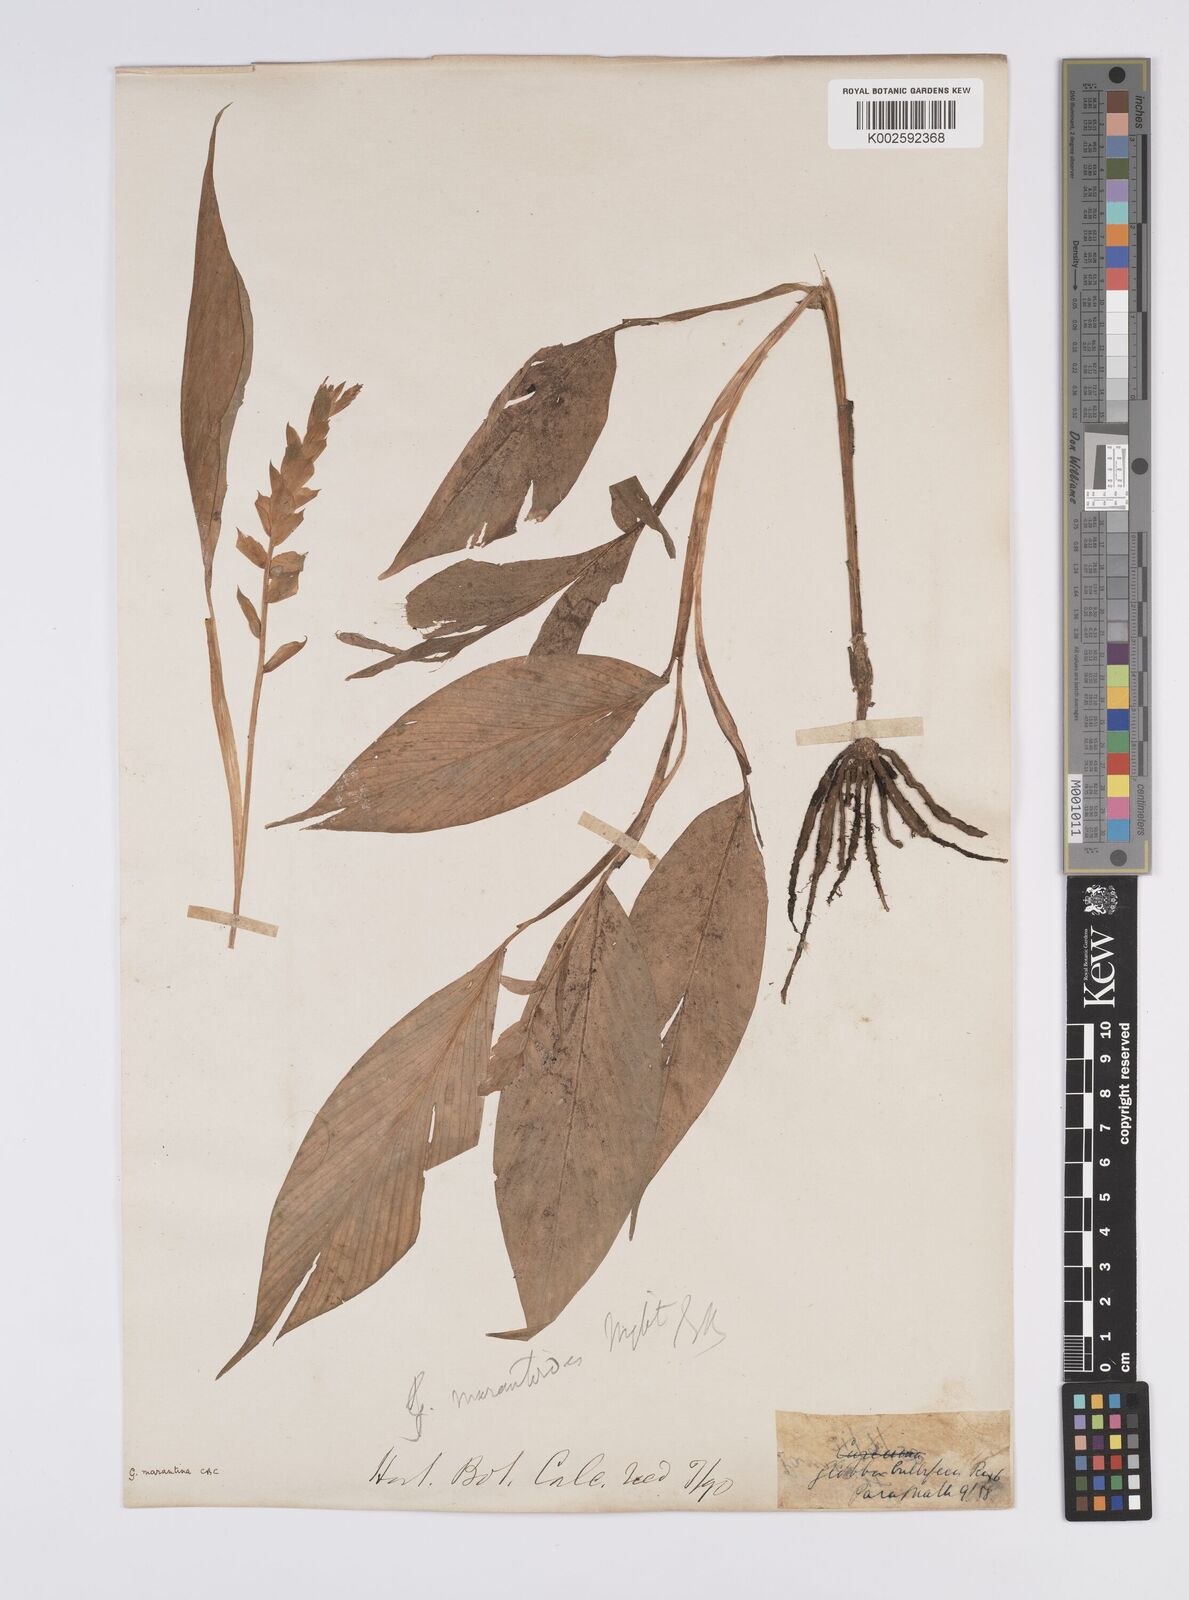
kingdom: Plantae
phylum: Tracheophyta
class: Liliopsida
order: Zingiberales
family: Zingiberaceae
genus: Globba
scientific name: Globba marantina
